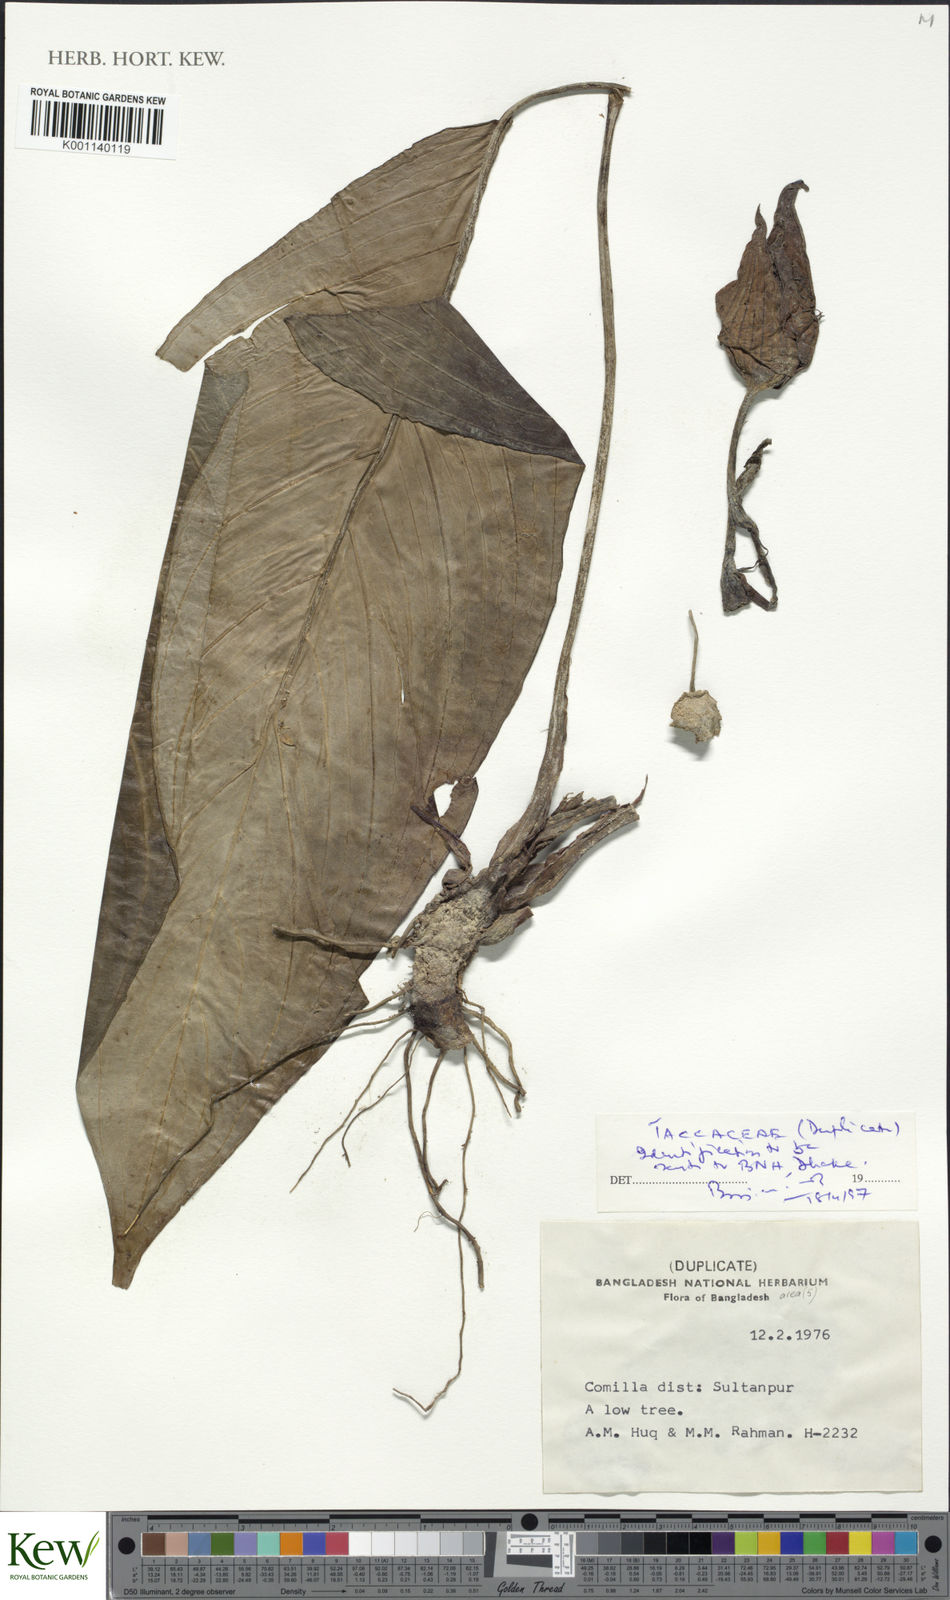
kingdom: Plantae
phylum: Tracheophyta
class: Liliopsida
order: Dioscoreales
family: Dioscoreaceae
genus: Tacca
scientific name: Tacca
